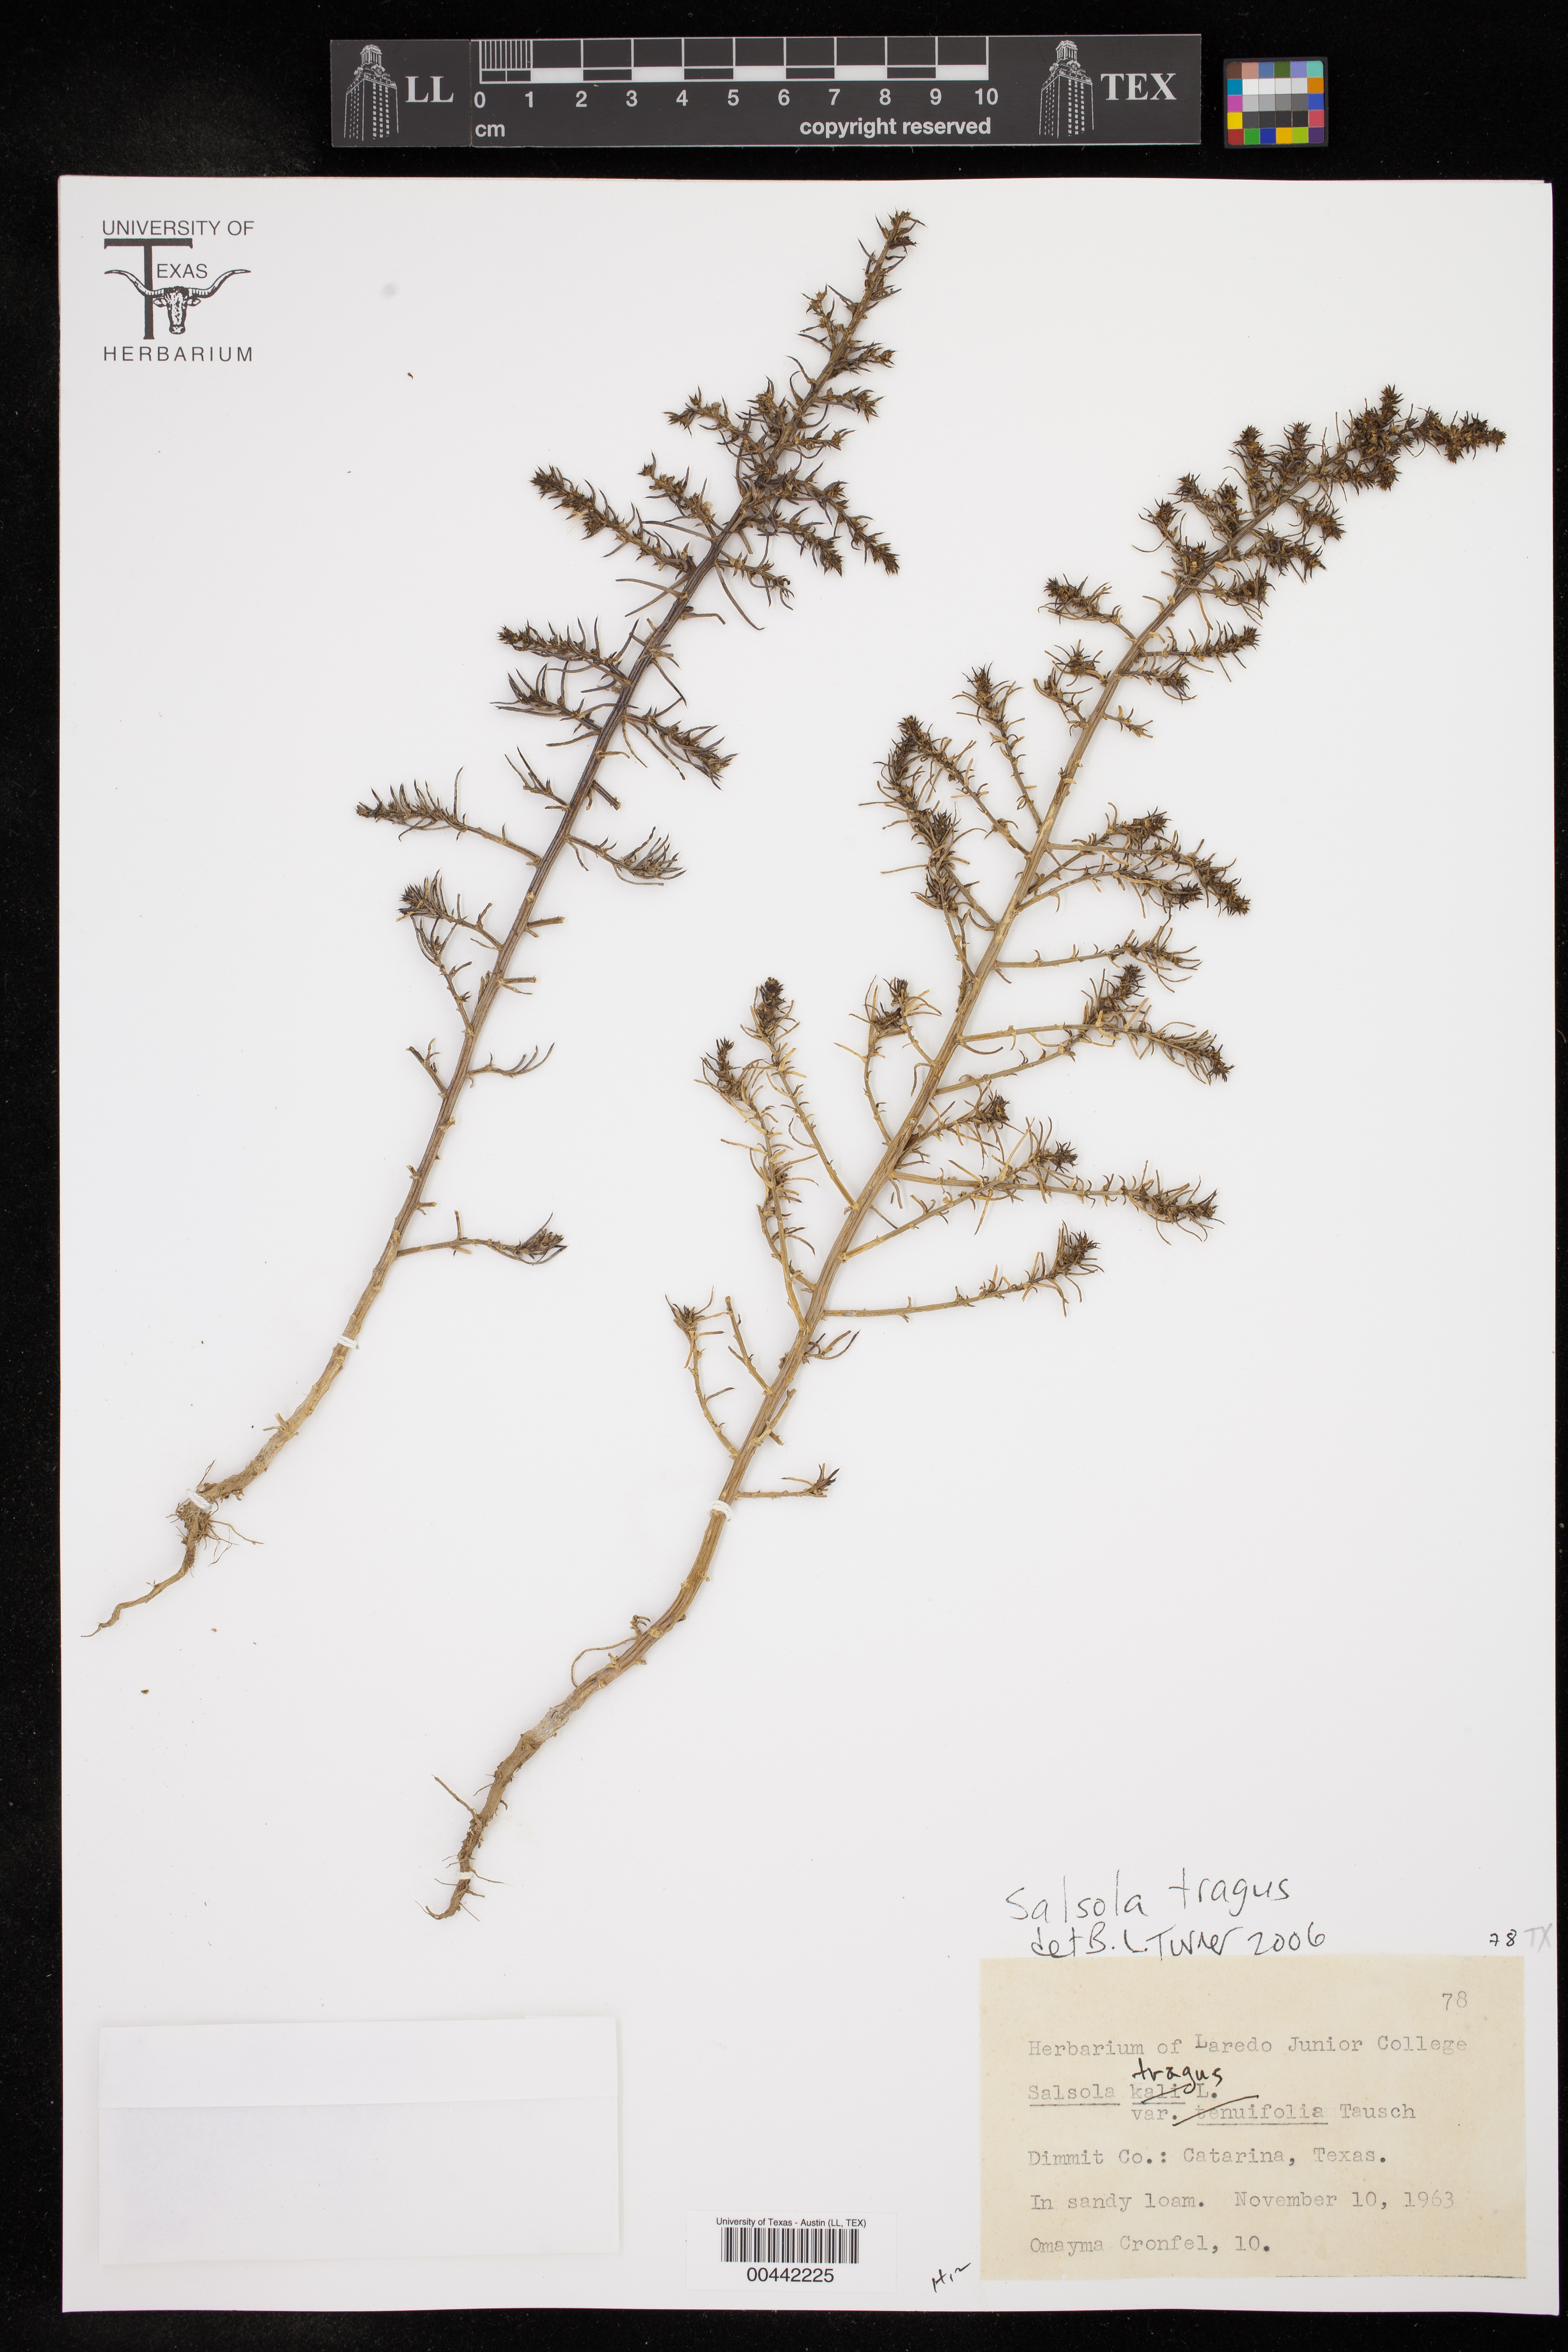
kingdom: Plantae
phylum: Tracheophyta
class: Magnoliopsida
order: Caryophyllales
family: Amaranthaceae
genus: Salsola
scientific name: Salsola tragus
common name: Prickly russian thistle
